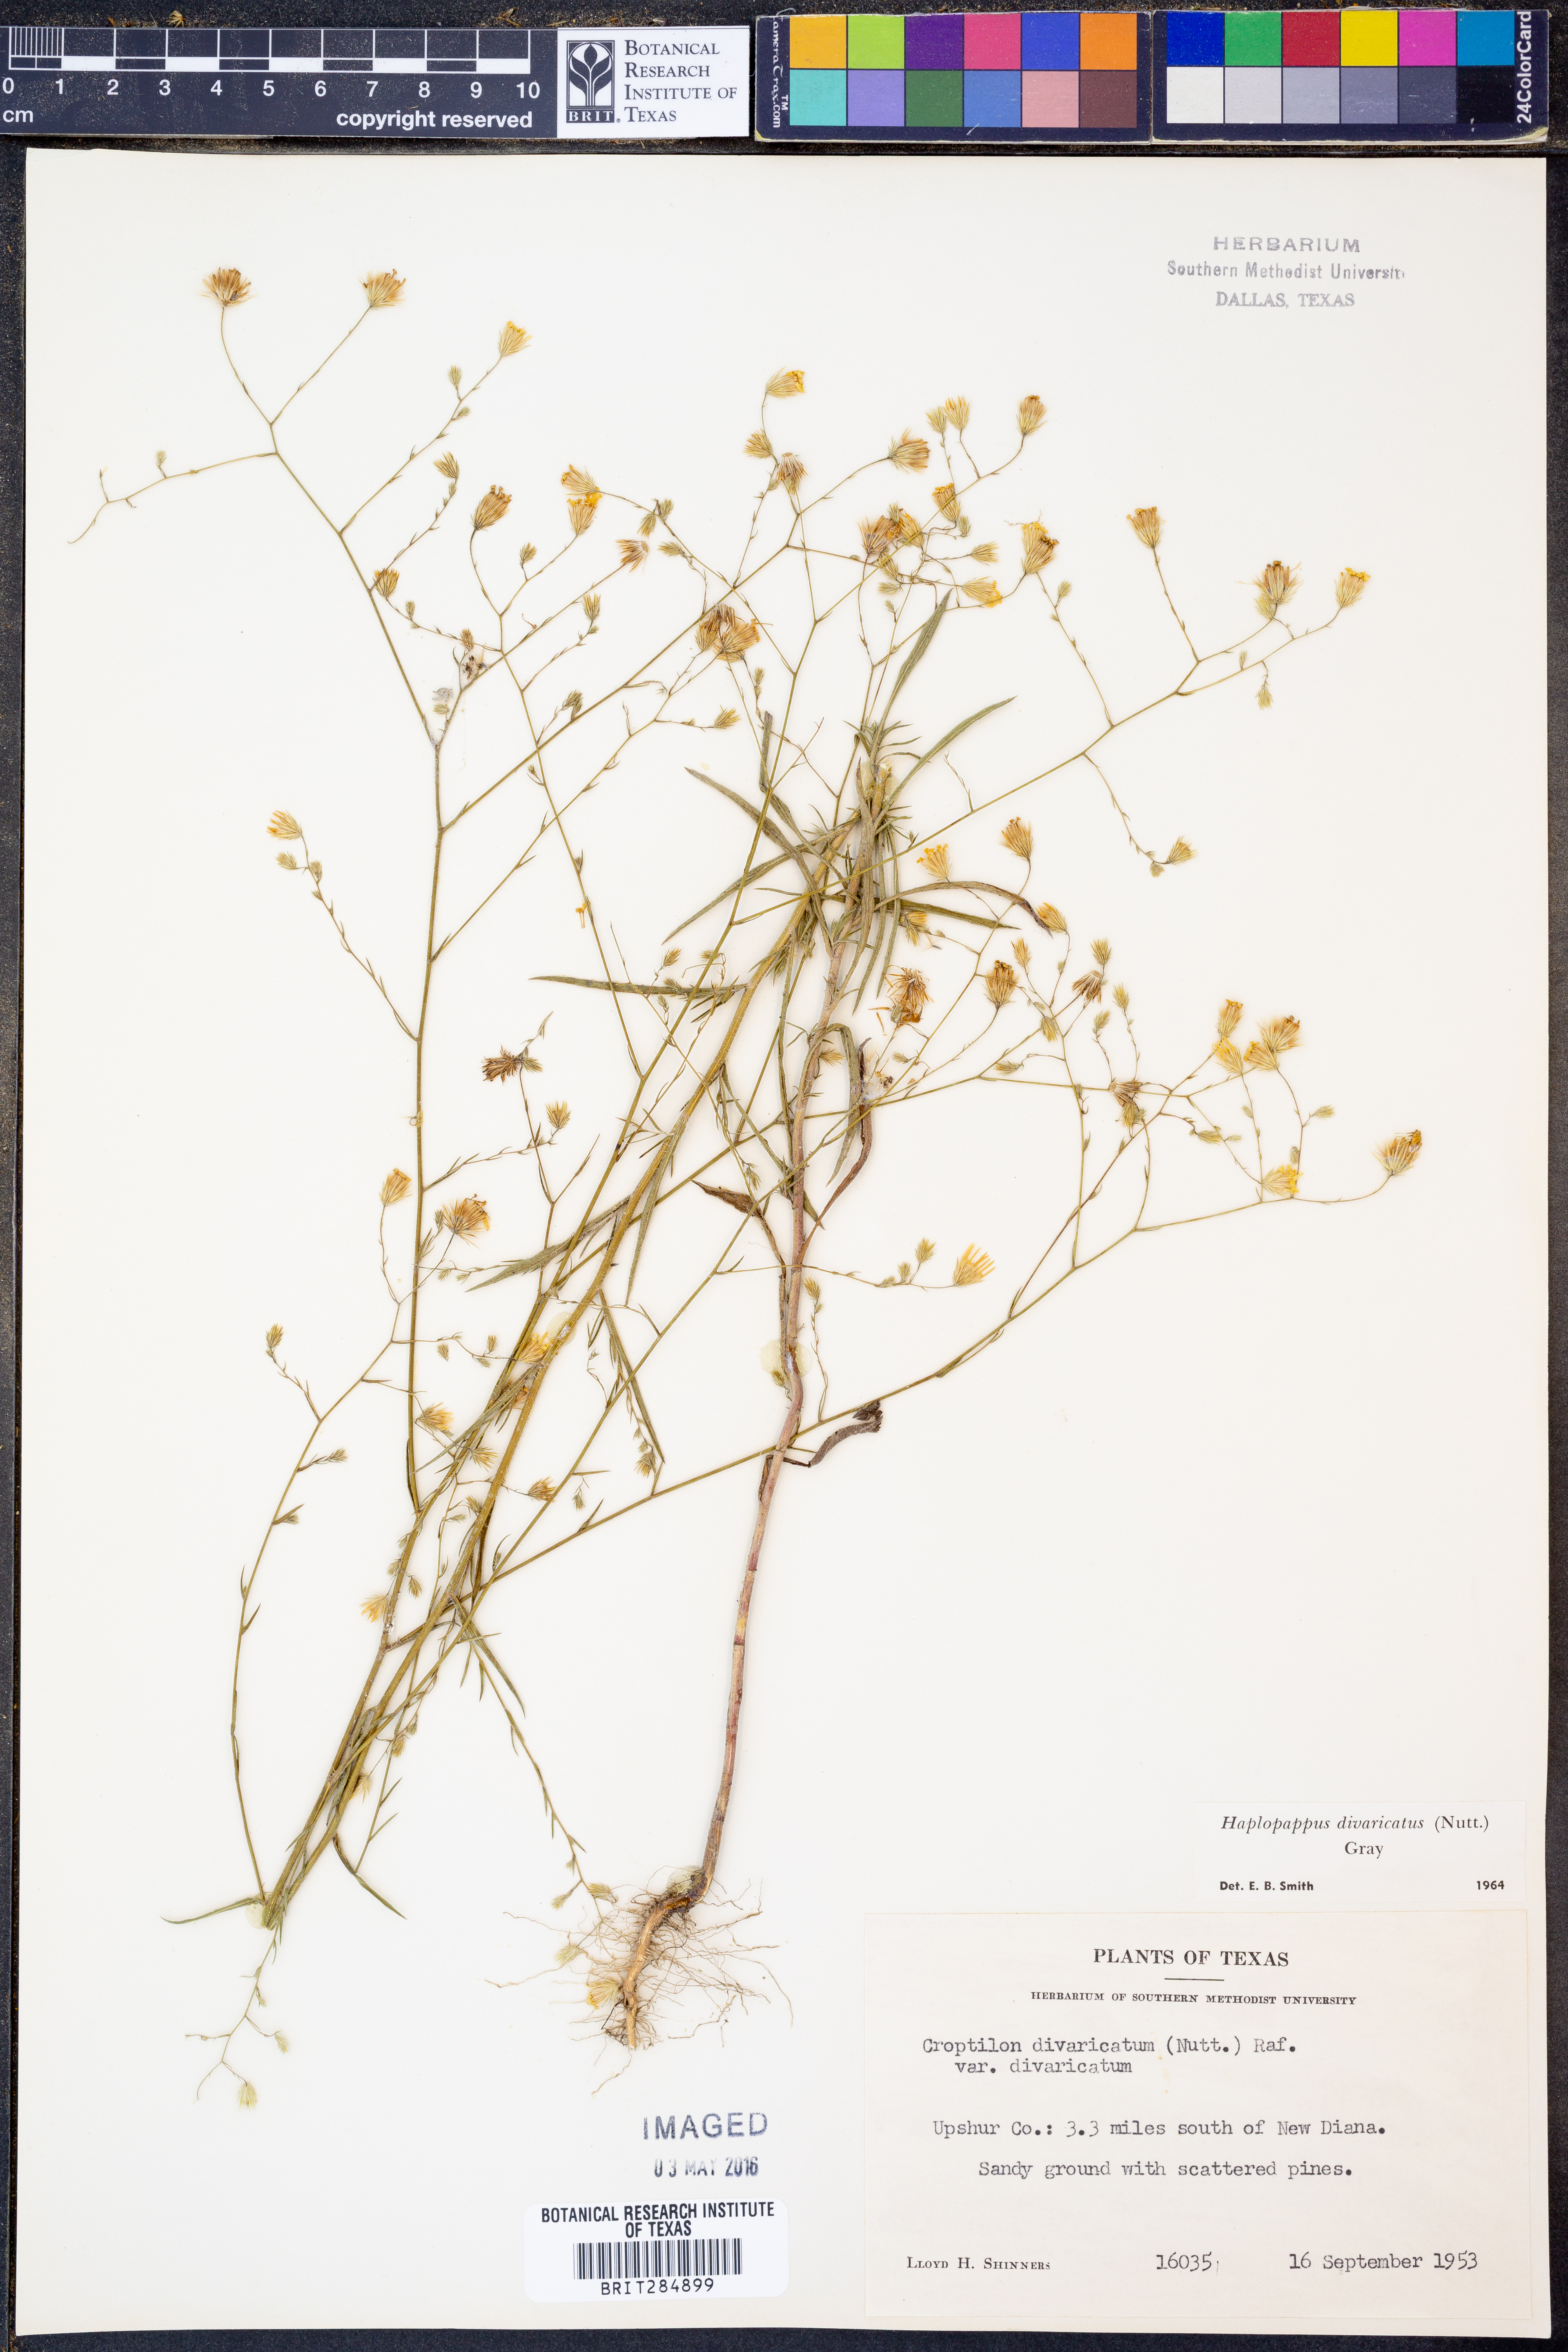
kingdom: Plantae
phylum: Tracheophyta
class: Magnoliopsida
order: Asterales
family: Asteraceae
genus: Croptilon
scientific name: Croptilon divaricatum
